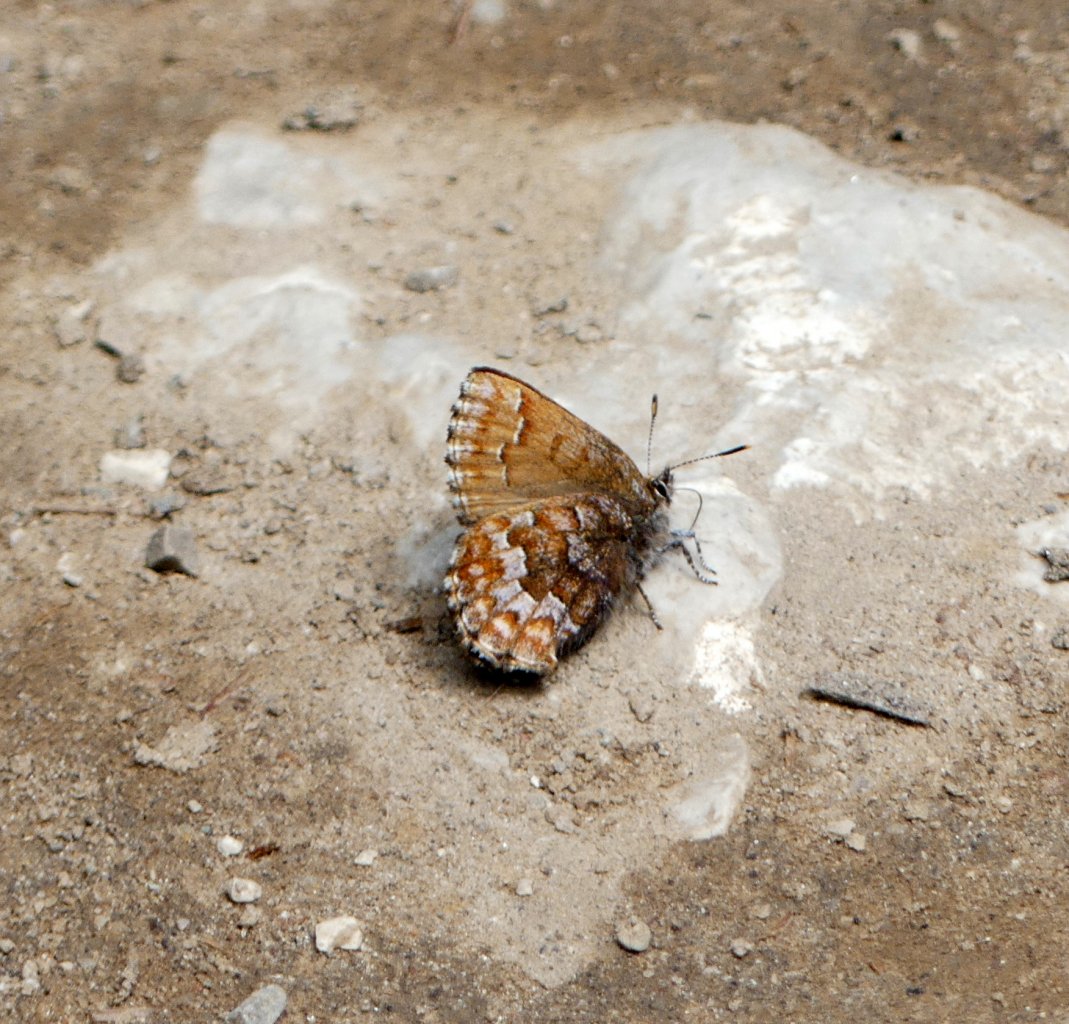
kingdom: Animalia
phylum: Arthropoda
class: Insecta
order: Lepidoptera
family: Lycaenidae
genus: Incisalia
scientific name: Incisalia niphon
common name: Eastern Pine Elfin
